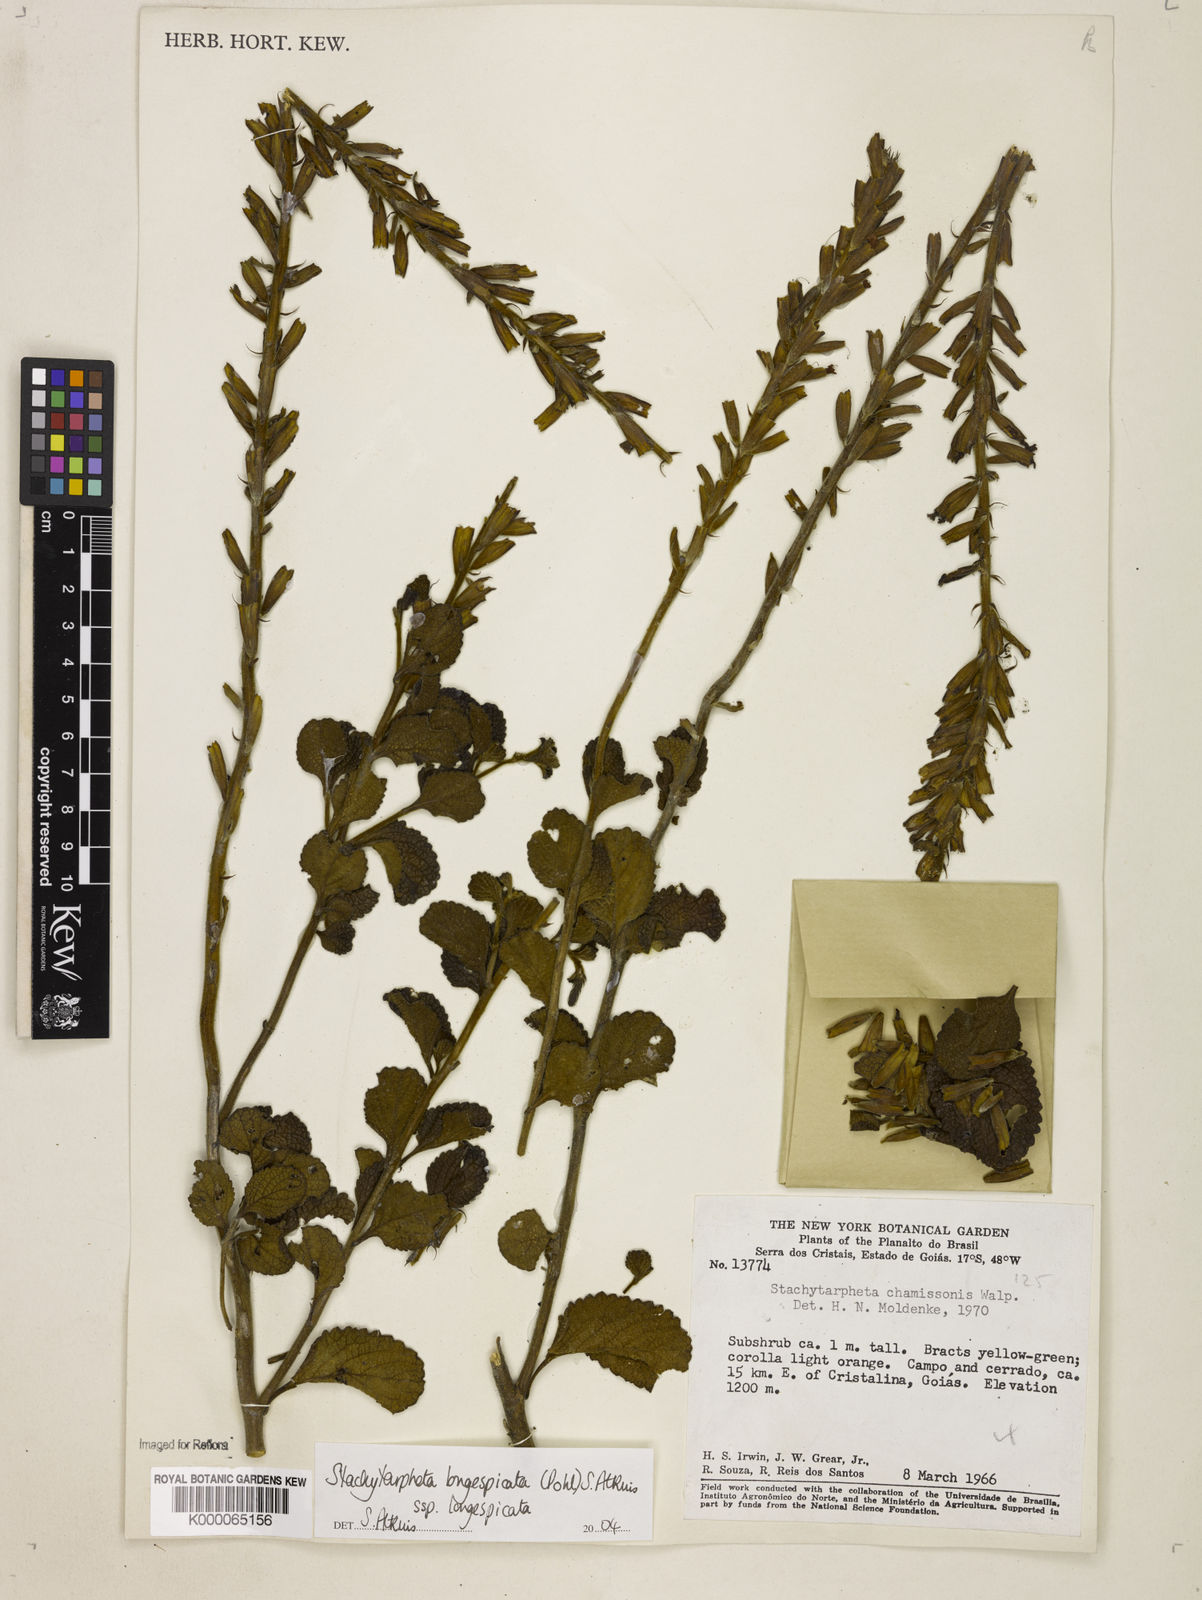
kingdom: Plantae
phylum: Tracheophyta
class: Magnoliopsida
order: Lamiales
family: Verbenaceae
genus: Stachytarpheta
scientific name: Stachytarpheta longispicata
